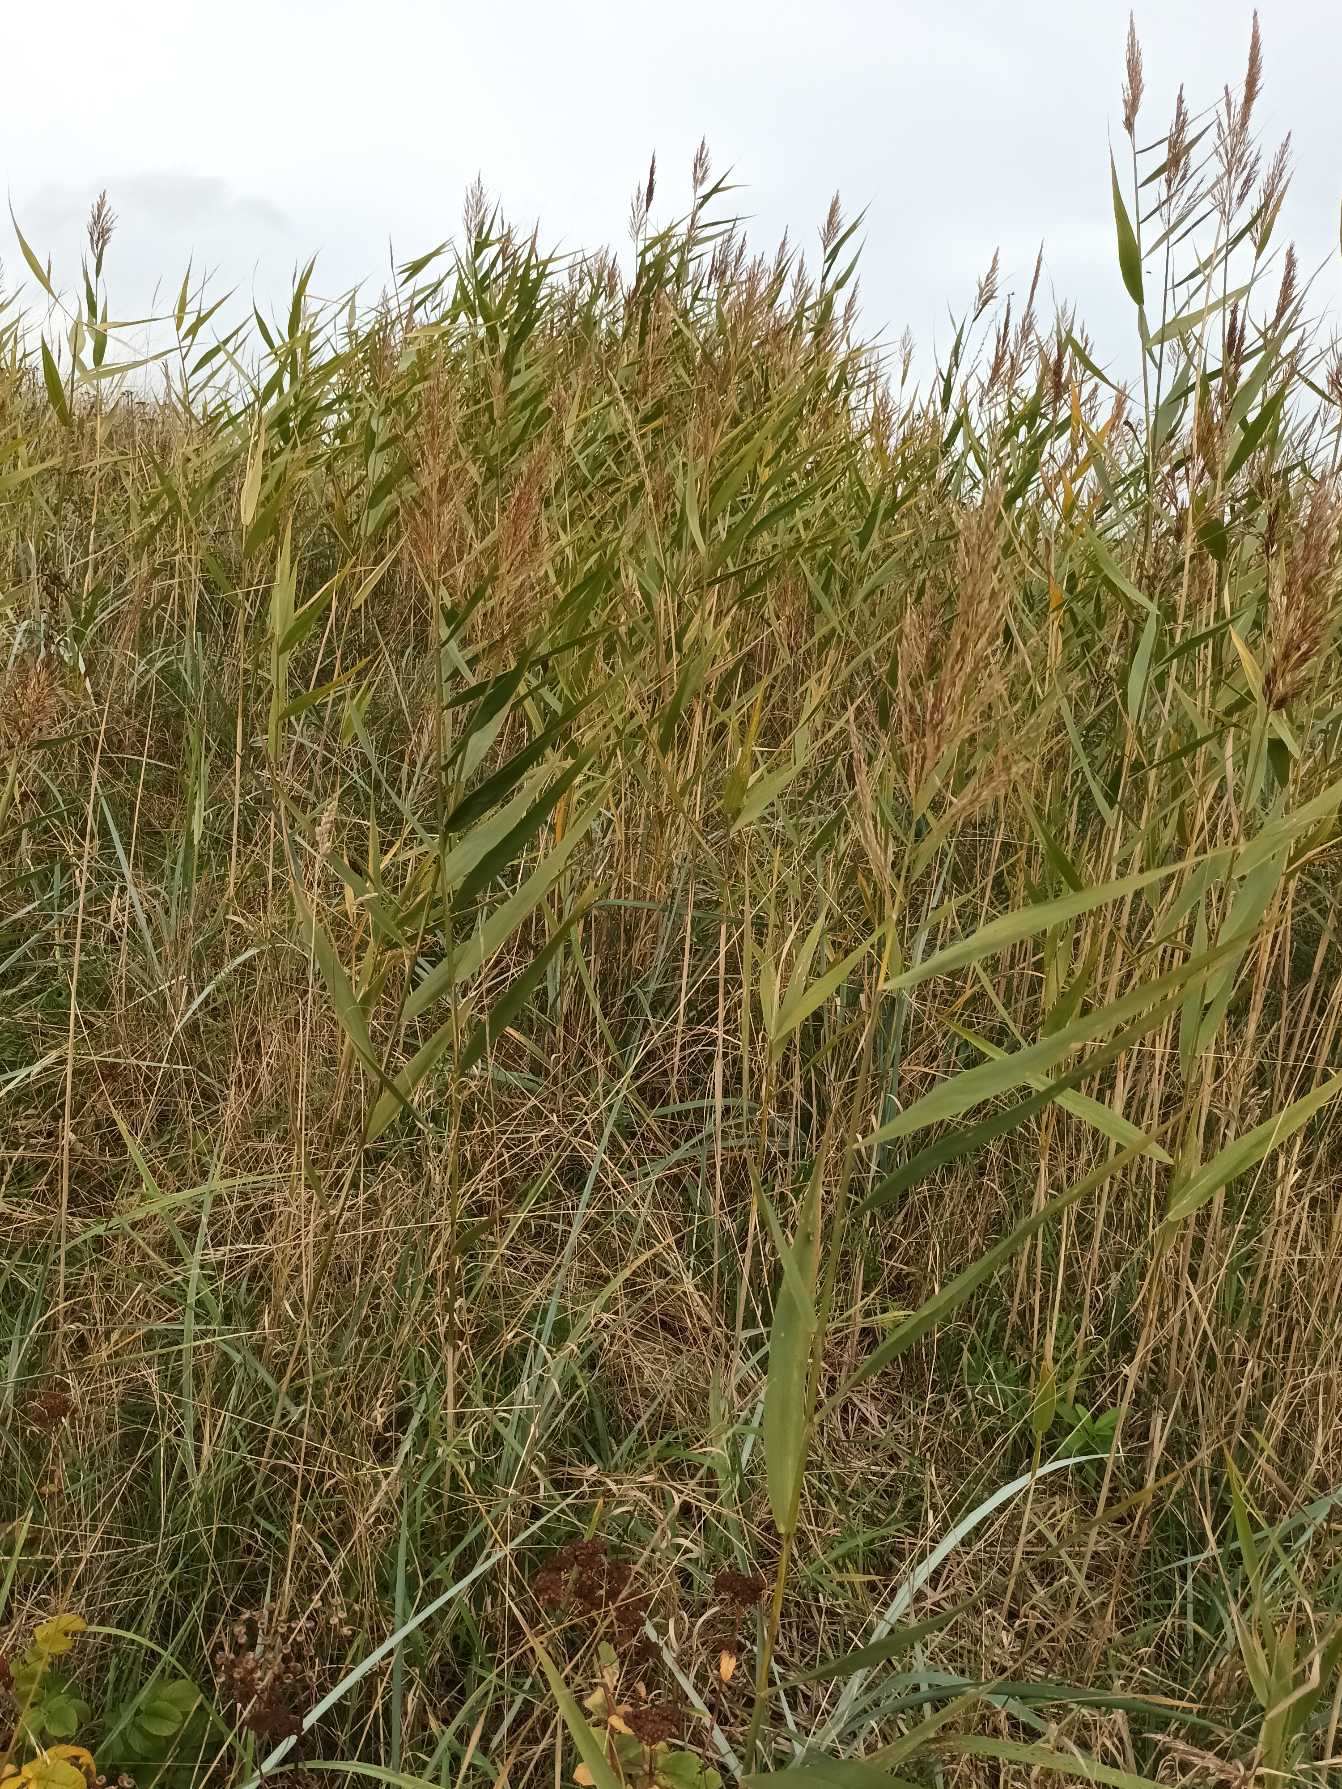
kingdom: Plantae
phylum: Tracheophyta
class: Liliopsida
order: Poales
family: Poaceae
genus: Phragmites
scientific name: Phragmites australis
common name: Tagrør
